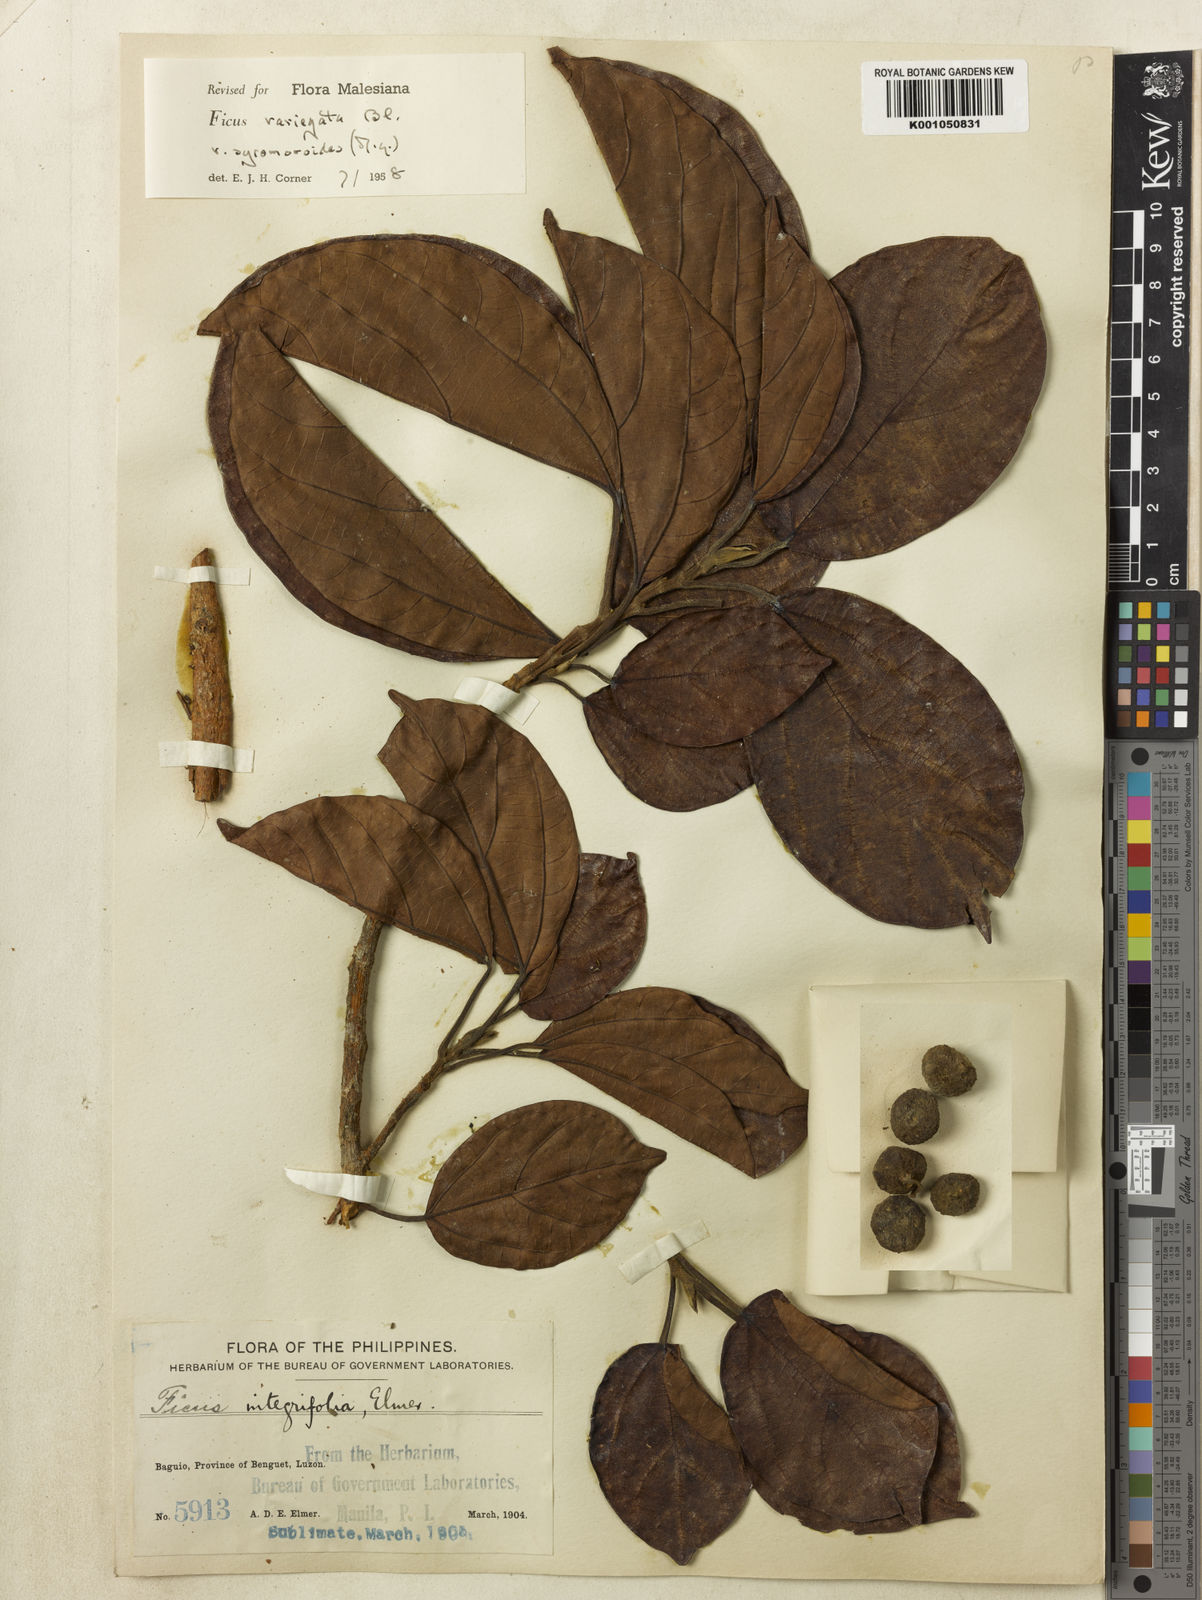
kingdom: Plantae
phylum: Tracheophyta
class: Magnoliopsida
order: Rosales
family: Moraceae
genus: Ficus
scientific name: Ficus variegata
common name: Variegated fig
